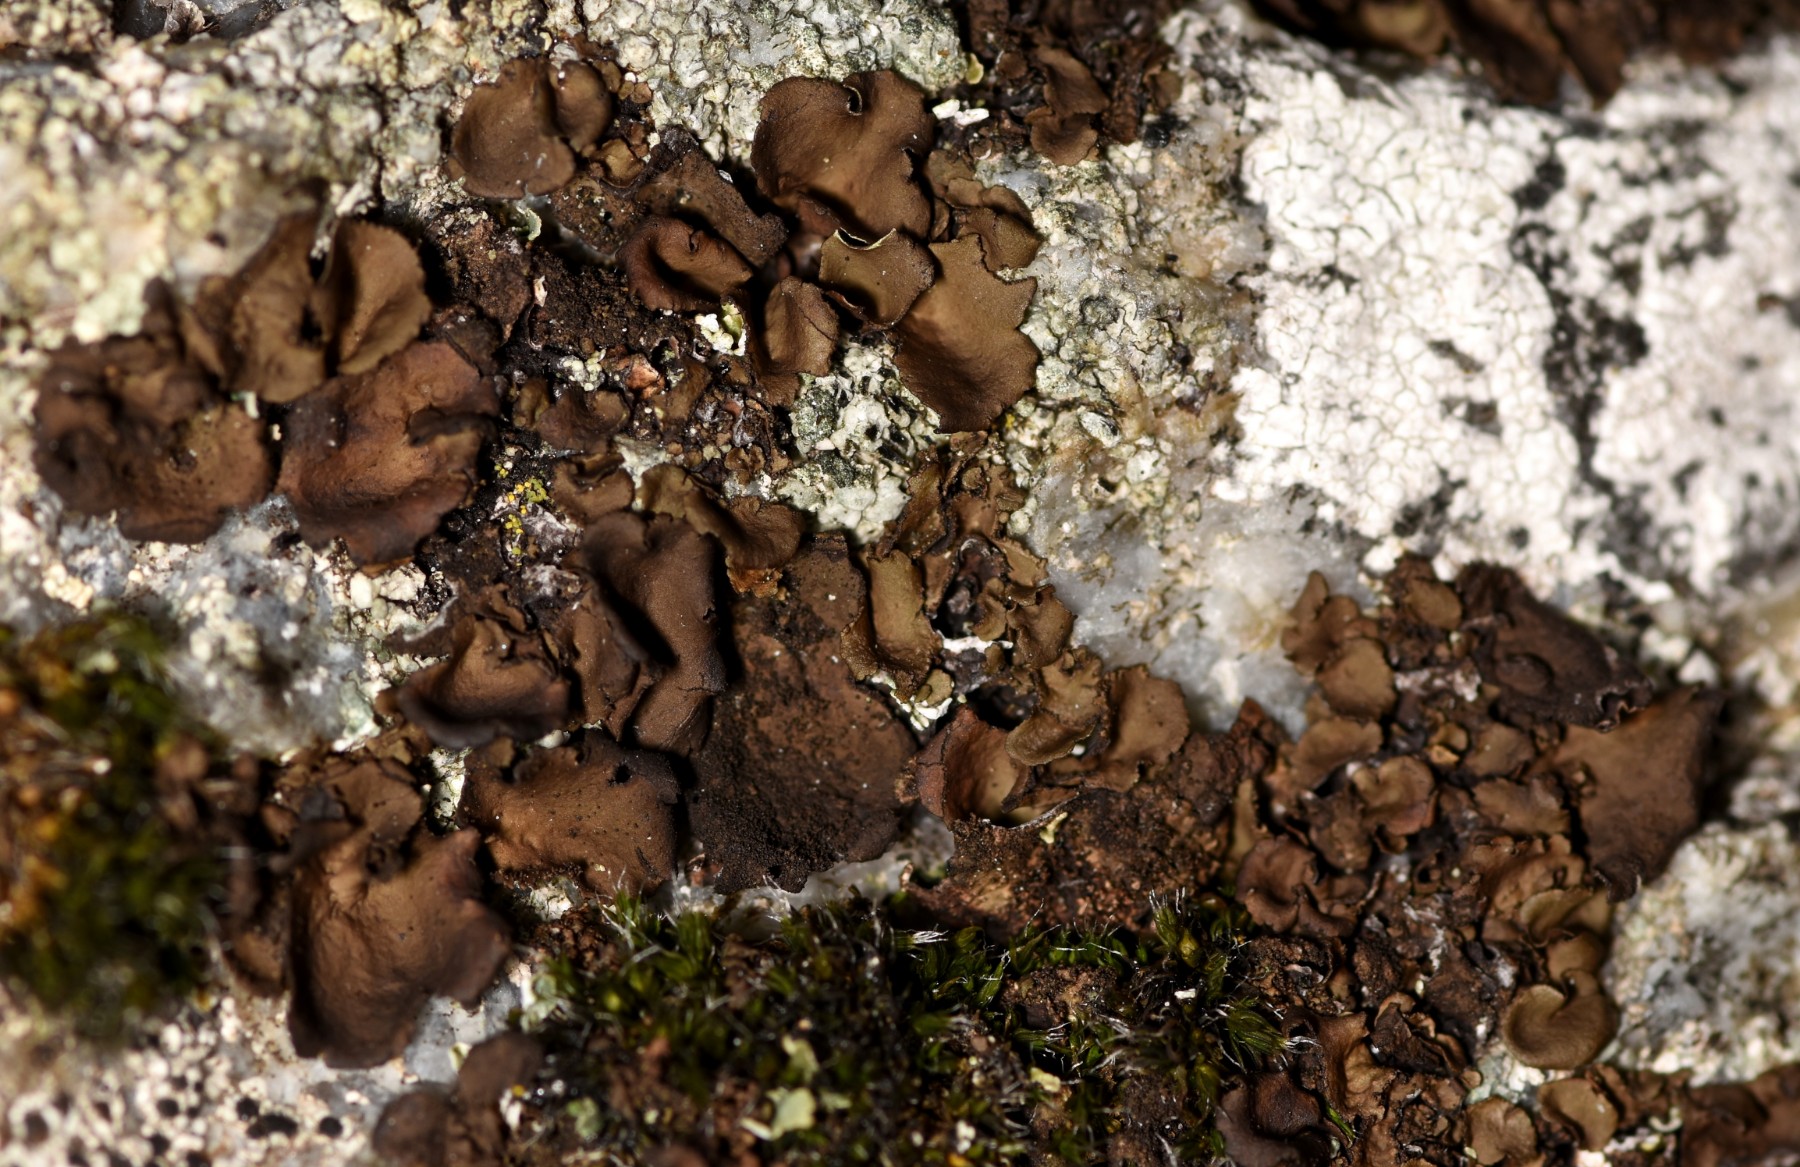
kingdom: Fungi
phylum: Ascomycota
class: Lecanoromycetes
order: Umbilicariales
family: Umbilicariaceae
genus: Umbilicaria
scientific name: Umbilicaria deusta
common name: kliddet navlelav
